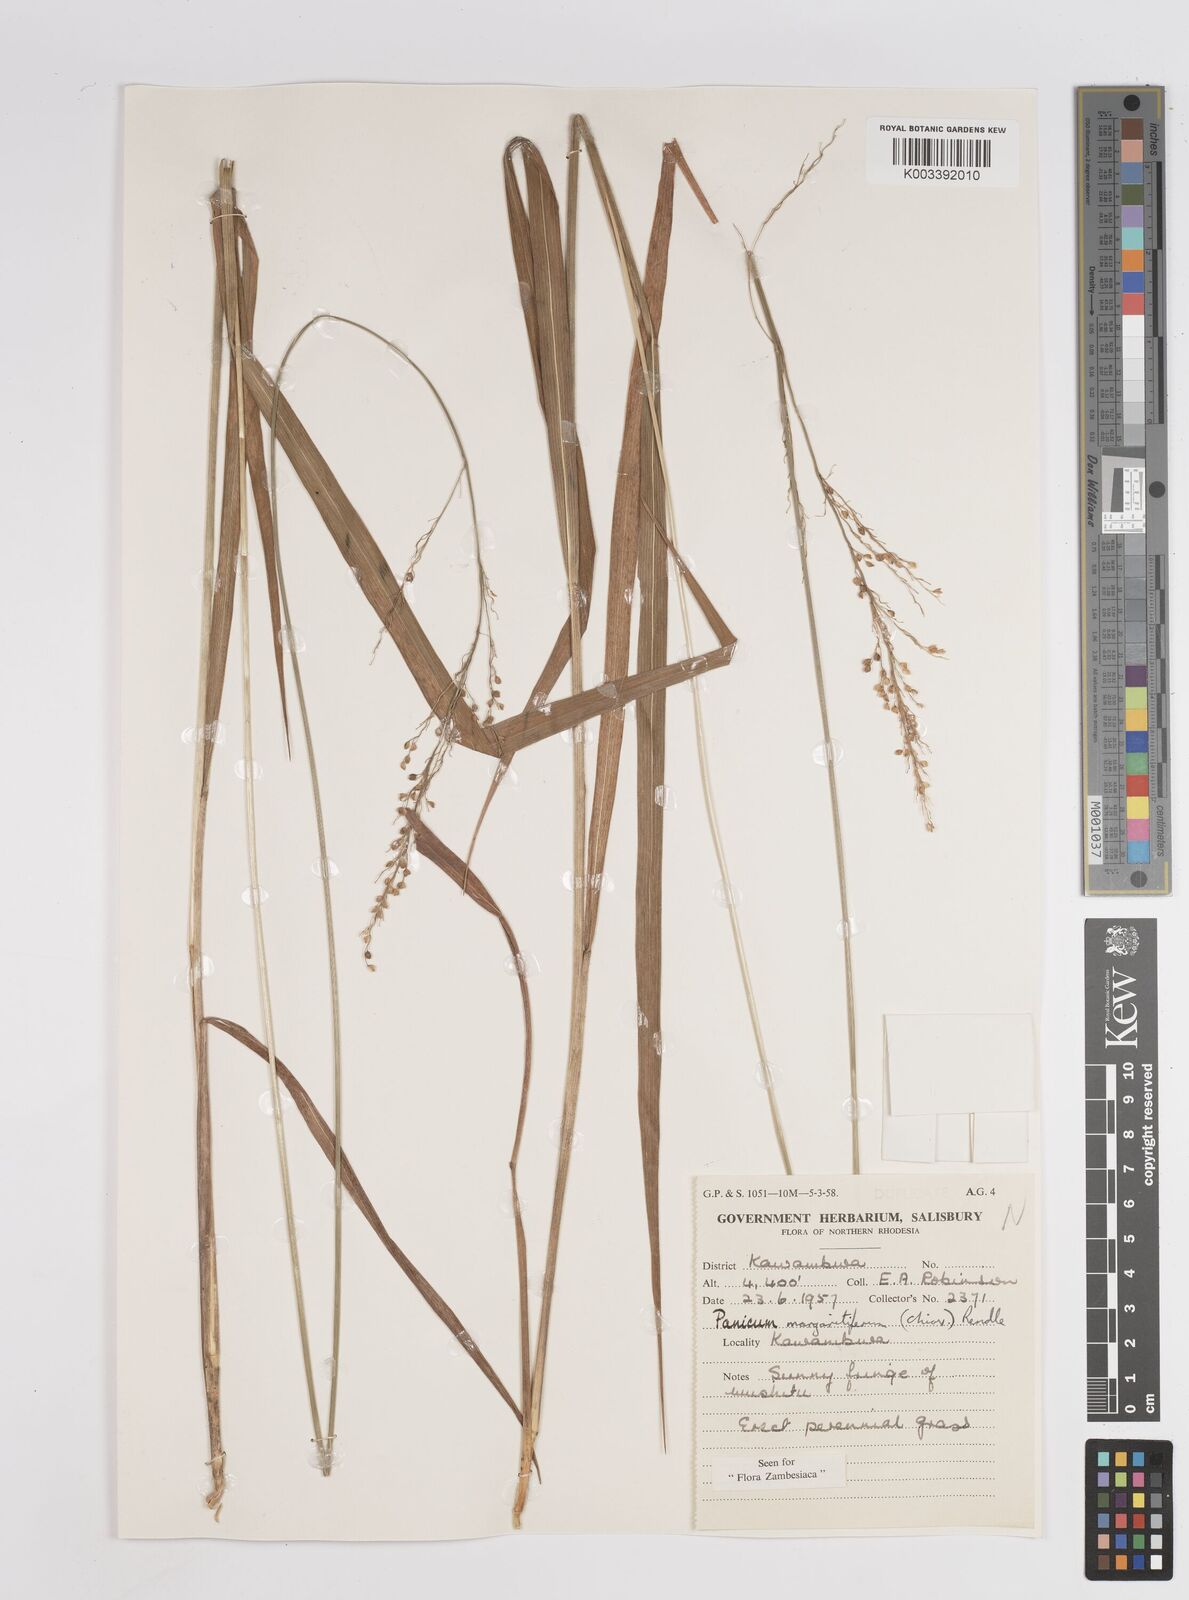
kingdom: Plantae
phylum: Tracheophyta
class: Liliopsida
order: Poales
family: Poaceae
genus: Sacciolepis
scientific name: Sacciolepis myuros
